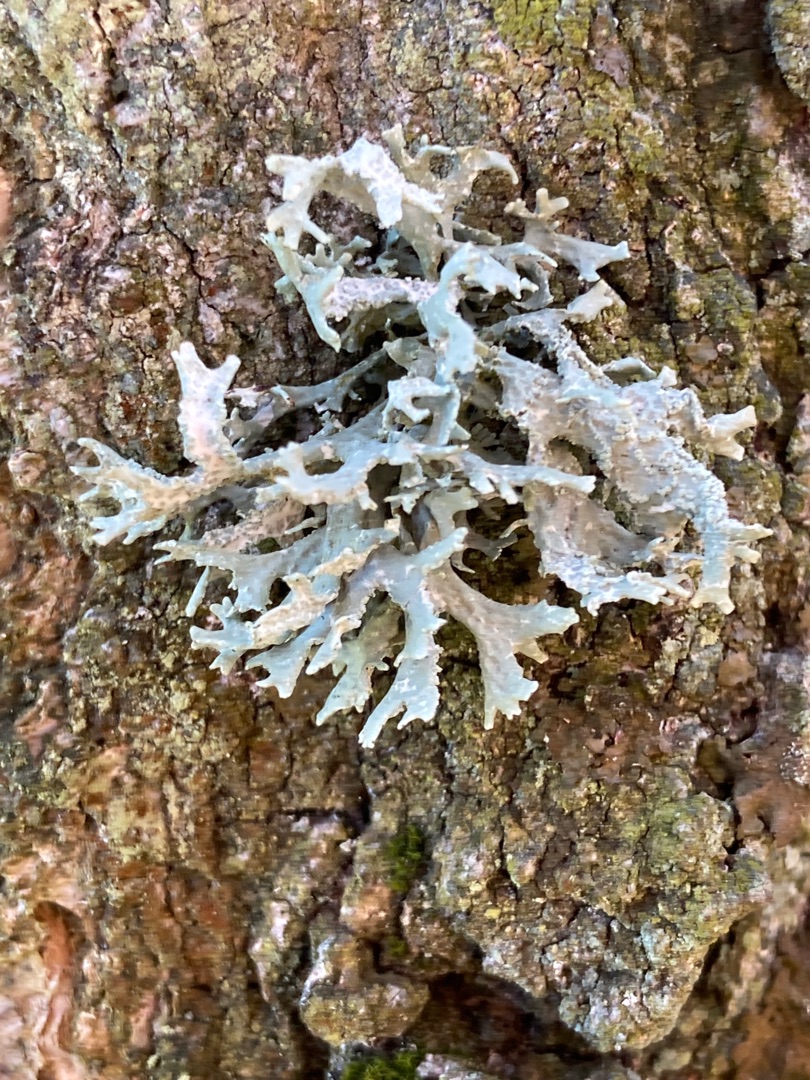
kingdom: Fungi
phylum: Ascomycota
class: Lecanoromycetes
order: Lecanorales
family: Parmeliaceae
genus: Evernia
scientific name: Evernia prunastri
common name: Almindelig slåenlav
